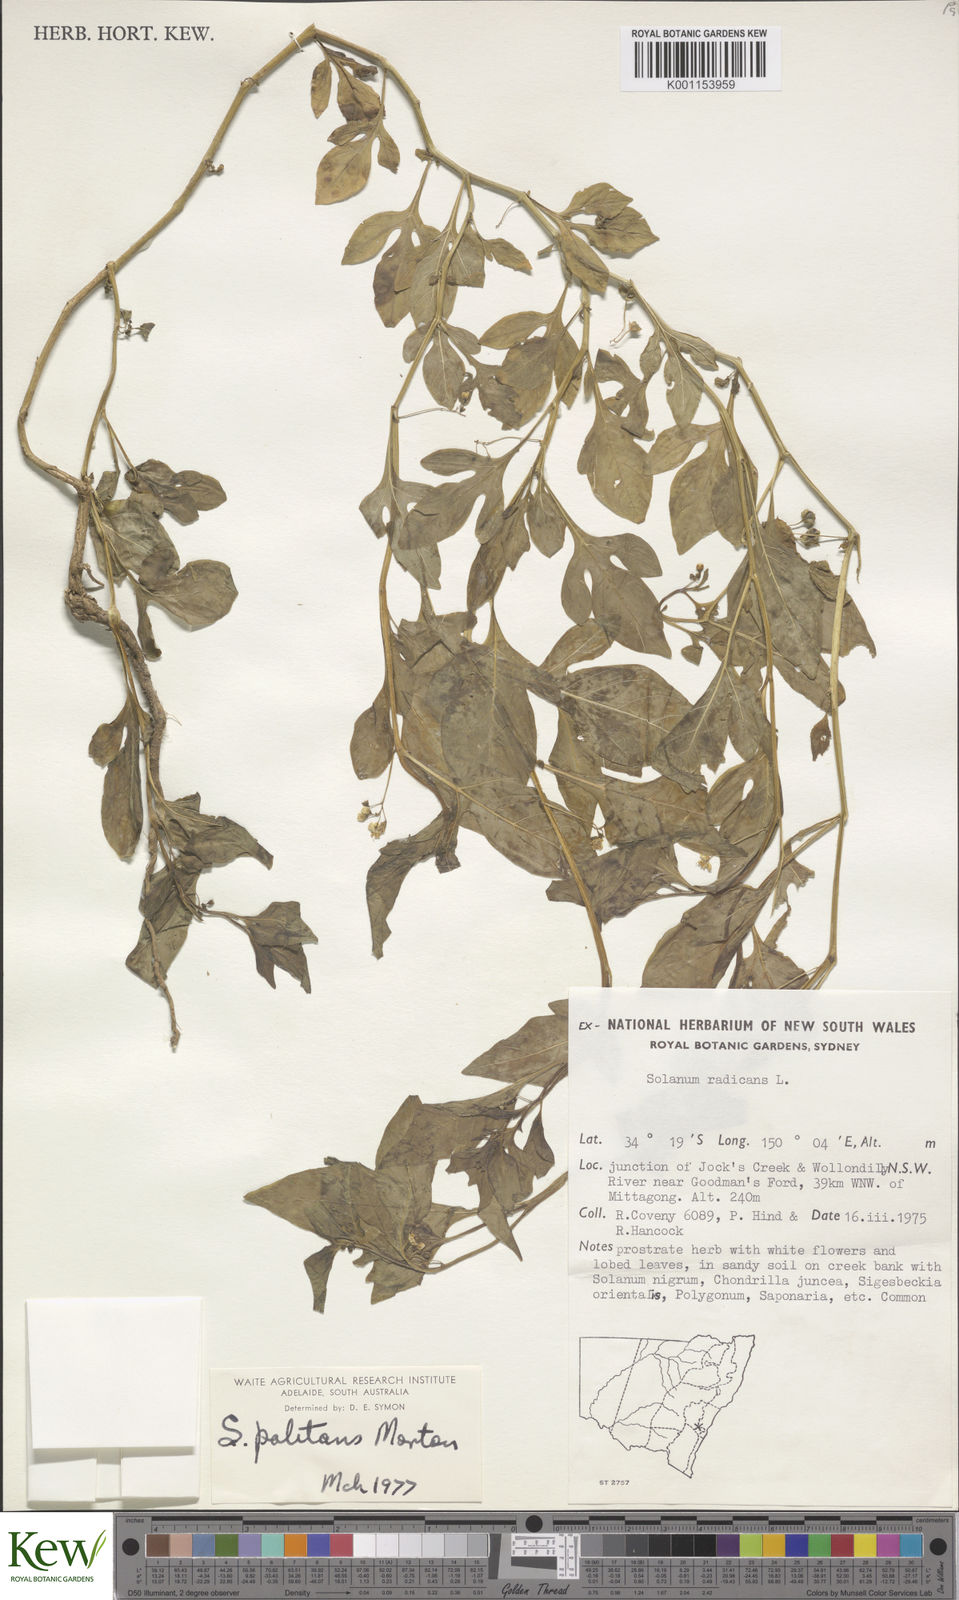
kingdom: Plantae
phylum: Tracheophyta
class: Magnoliopsida
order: Solanales
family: Solanaceae
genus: Solanum
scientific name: Solanum palitans
